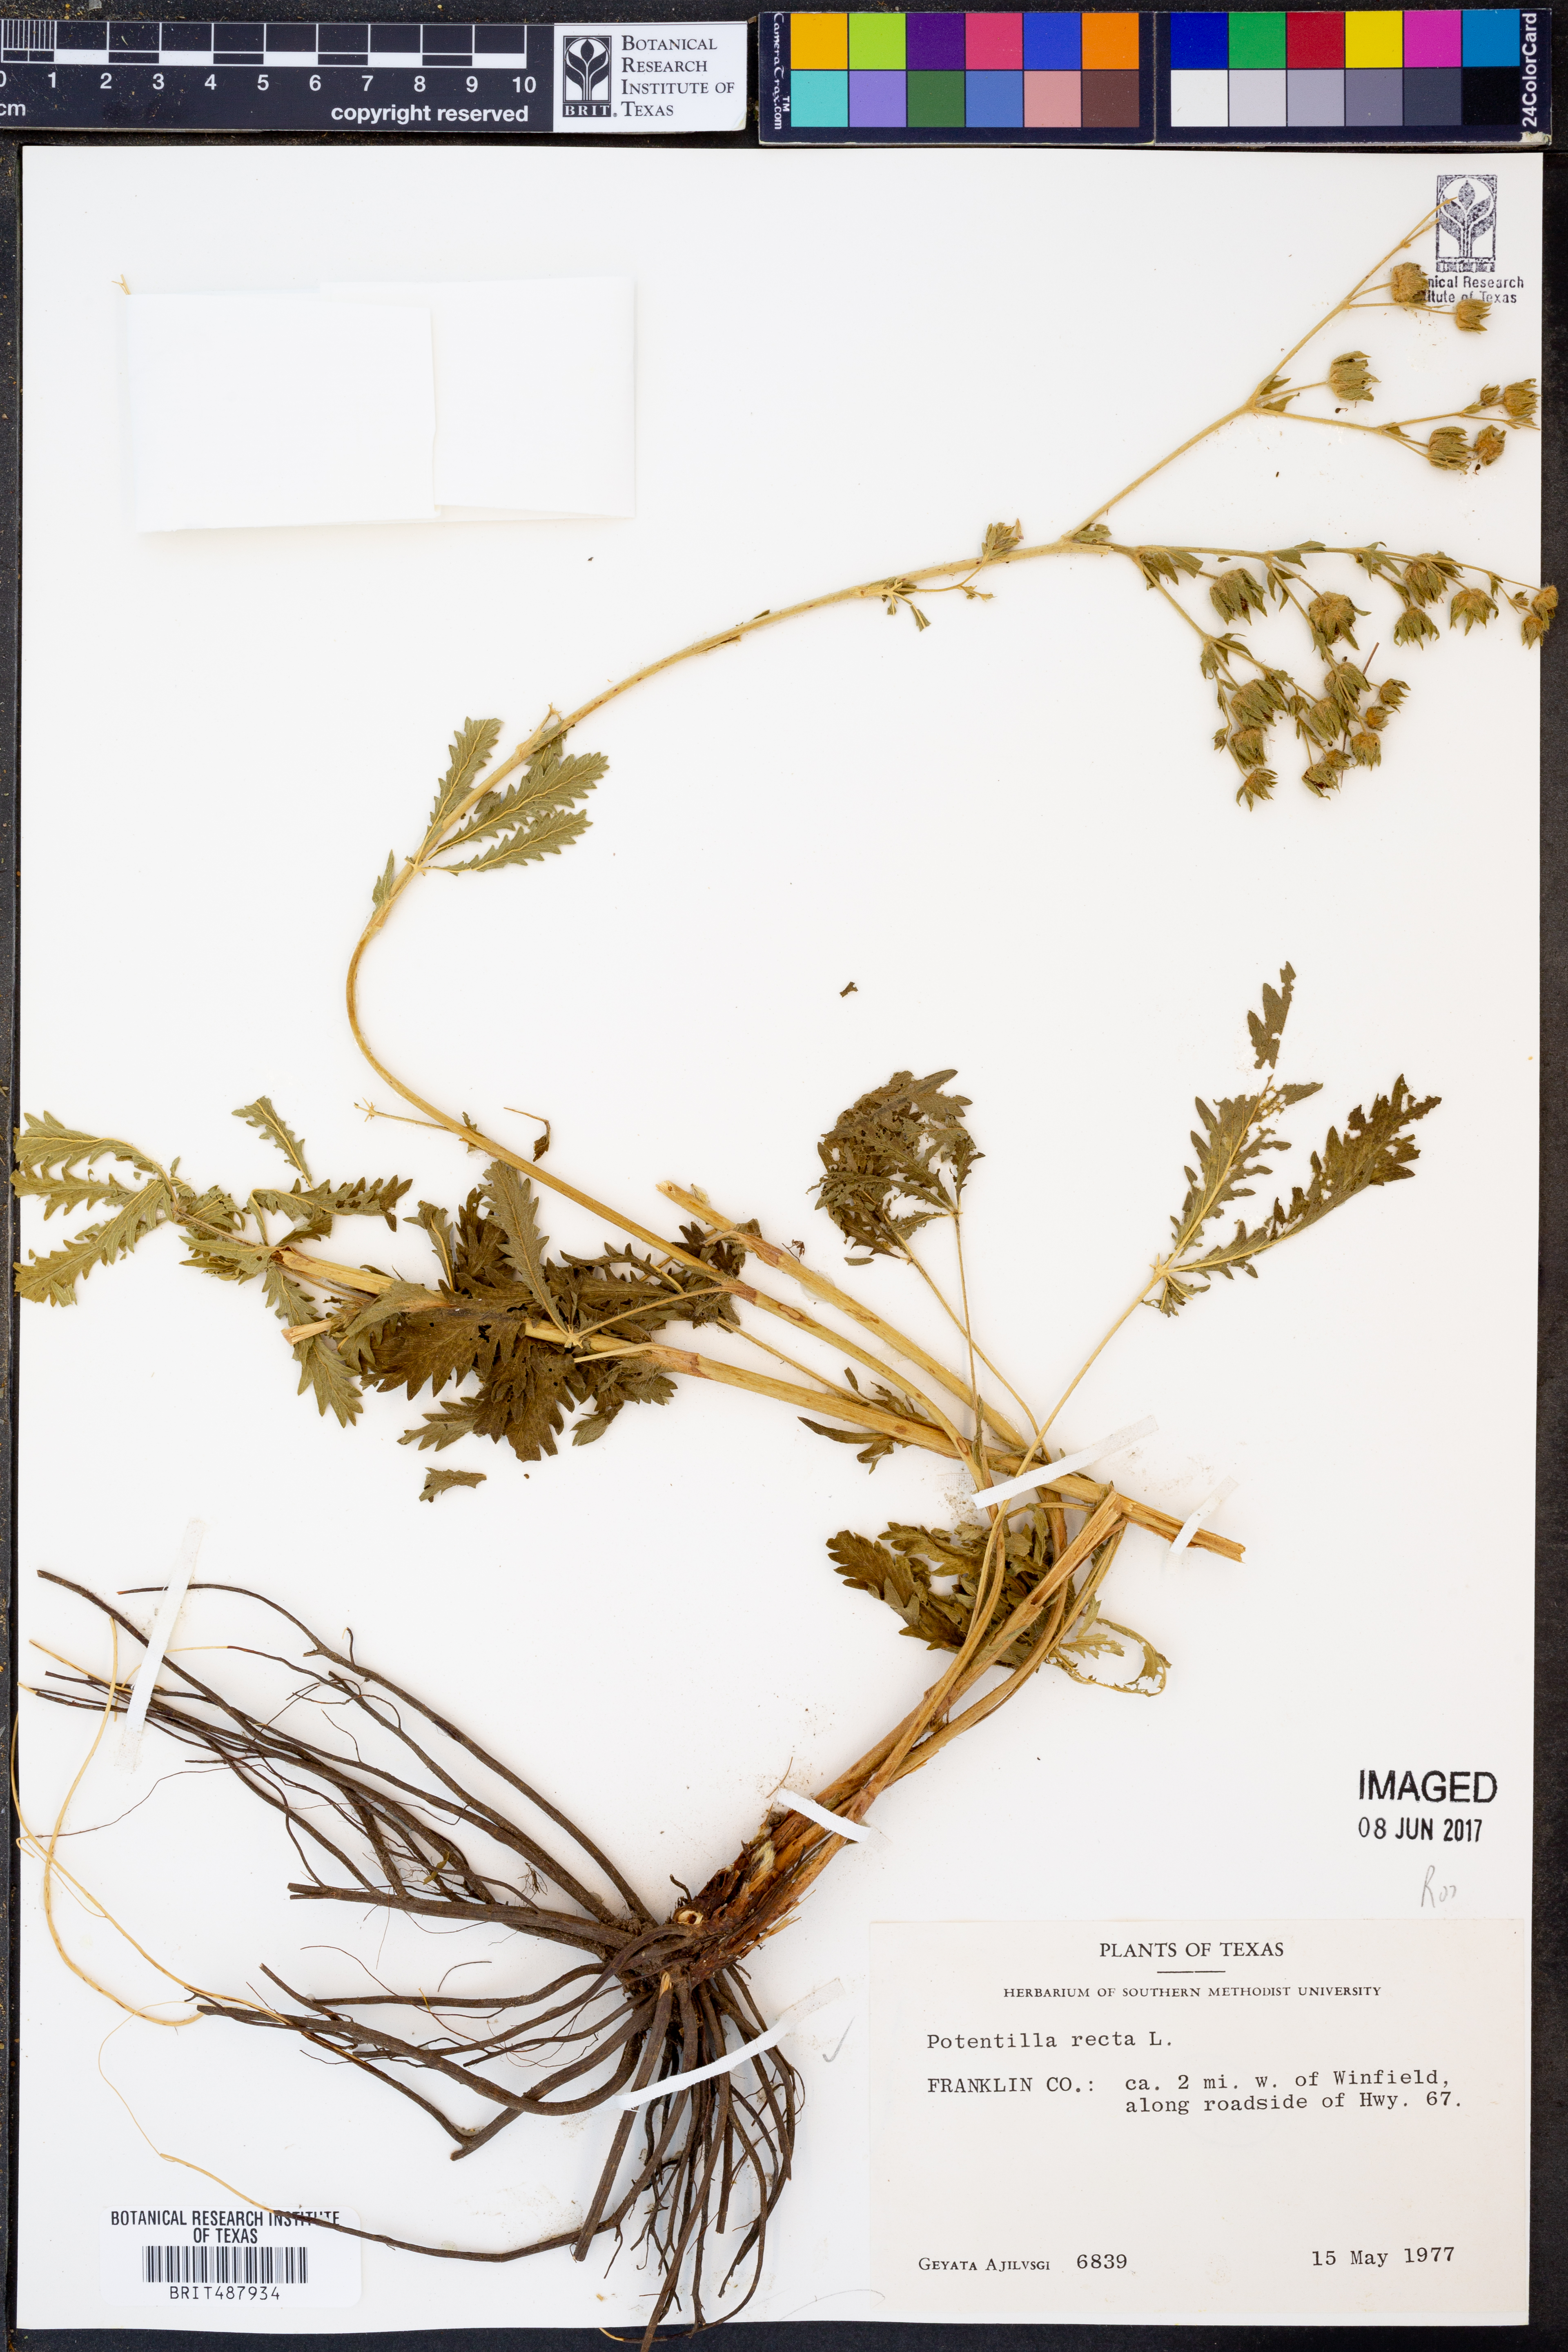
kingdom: Plantae
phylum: Tracheophyta
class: Magnoliopsida
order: Rosales
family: Rosaceae
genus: Potentilla
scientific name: Potentilla recta
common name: Sulphur cinquefoil
